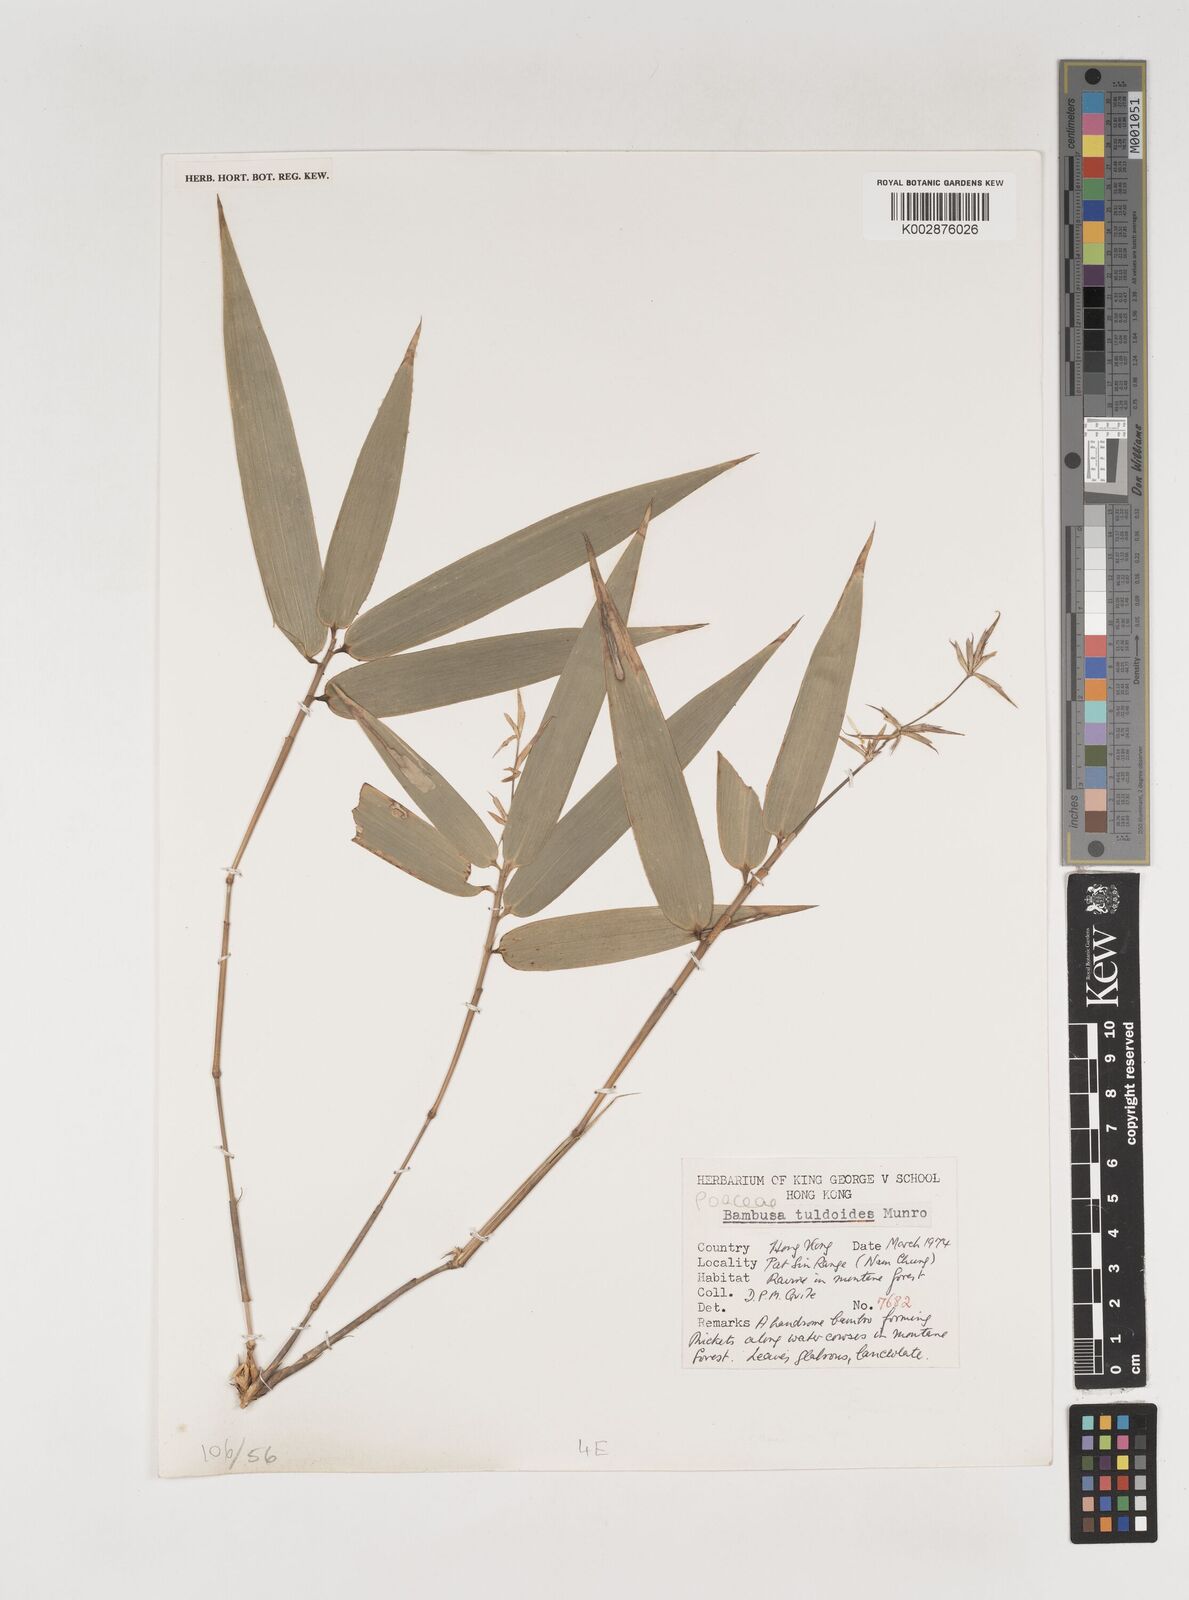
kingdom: Plantae
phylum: Tracheophyta
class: Liliopsida
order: Poales
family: Poaceae
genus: Bambusa
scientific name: Bambusa tuldoides
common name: Verdant bamboo
